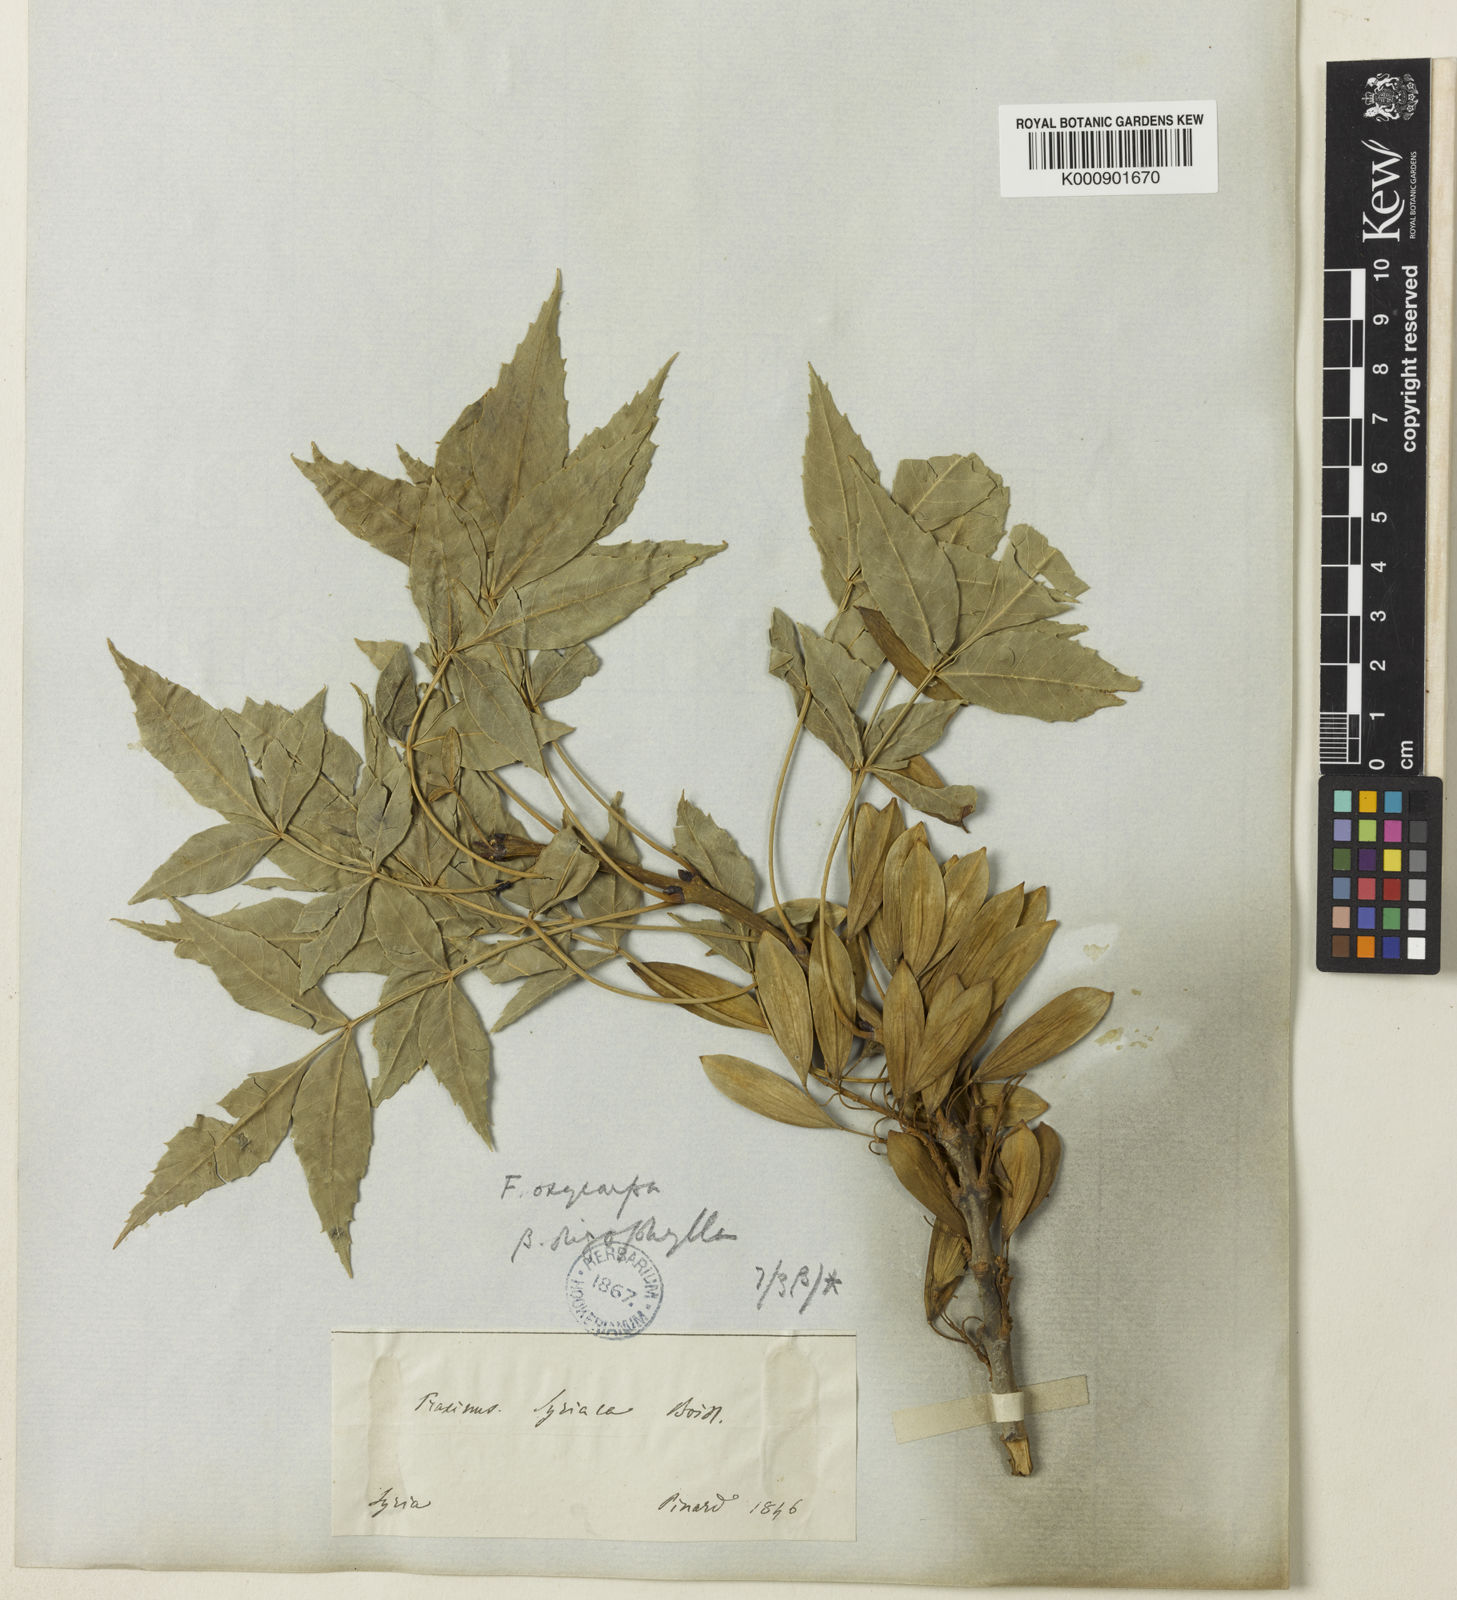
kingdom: Plantae
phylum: Tracheophyta
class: Magnoliopsida
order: Lamiales
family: Oleaceae
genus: Fraxinus
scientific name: Fraxinus
